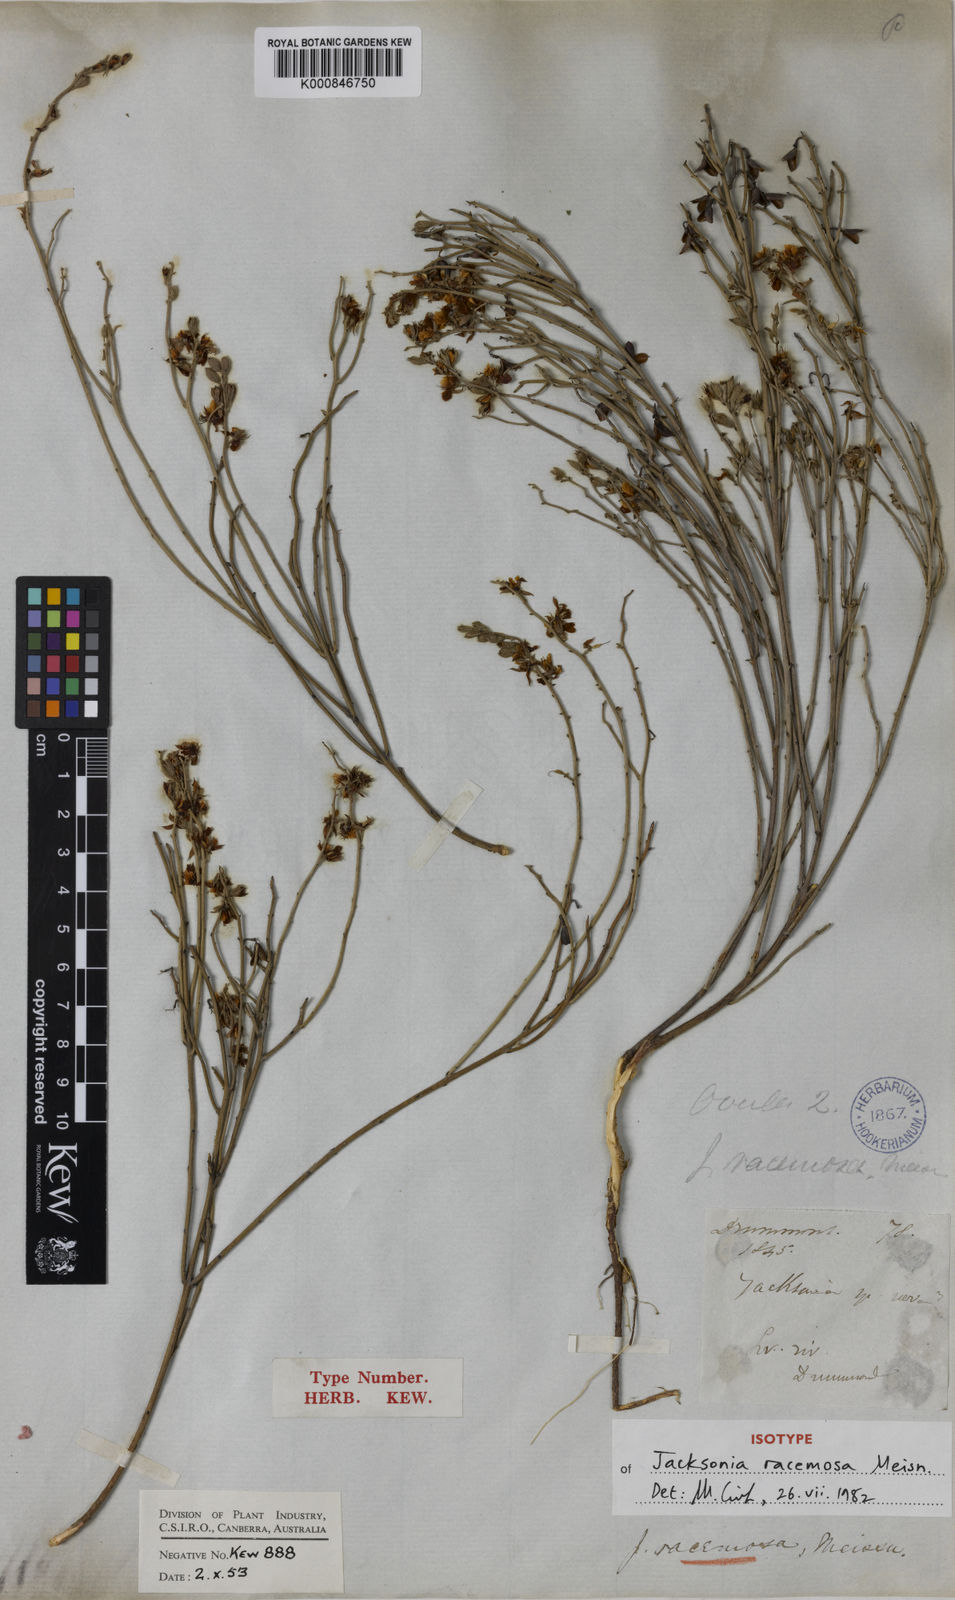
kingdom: Plantae
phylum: Tracheophyta
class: Magnoliopsida
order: Fabales
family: Fabaceae
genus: Jacksonia
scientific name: Jacksonia racemosa
